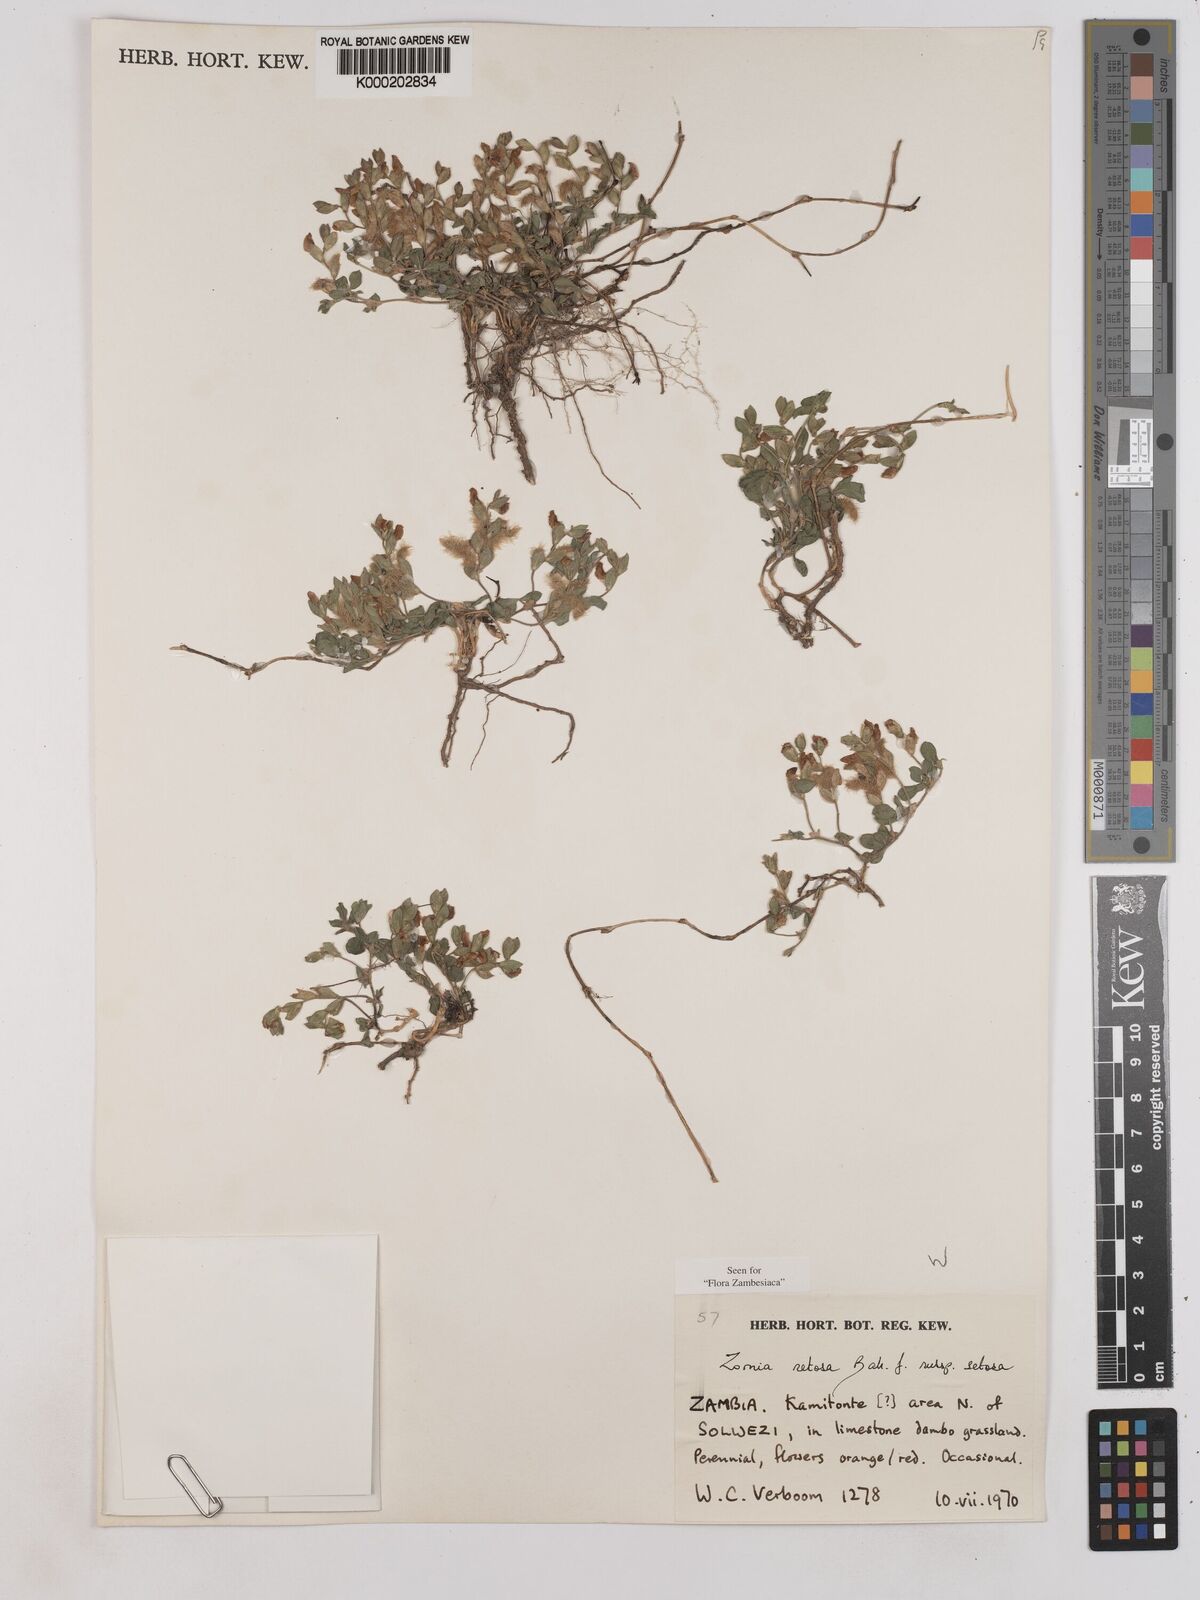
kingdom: Plantae
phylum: Tracheophyta
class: Magnoliopsida
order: Fabales
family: Fabaceae
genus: Zornia
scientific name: Zornia setosa
